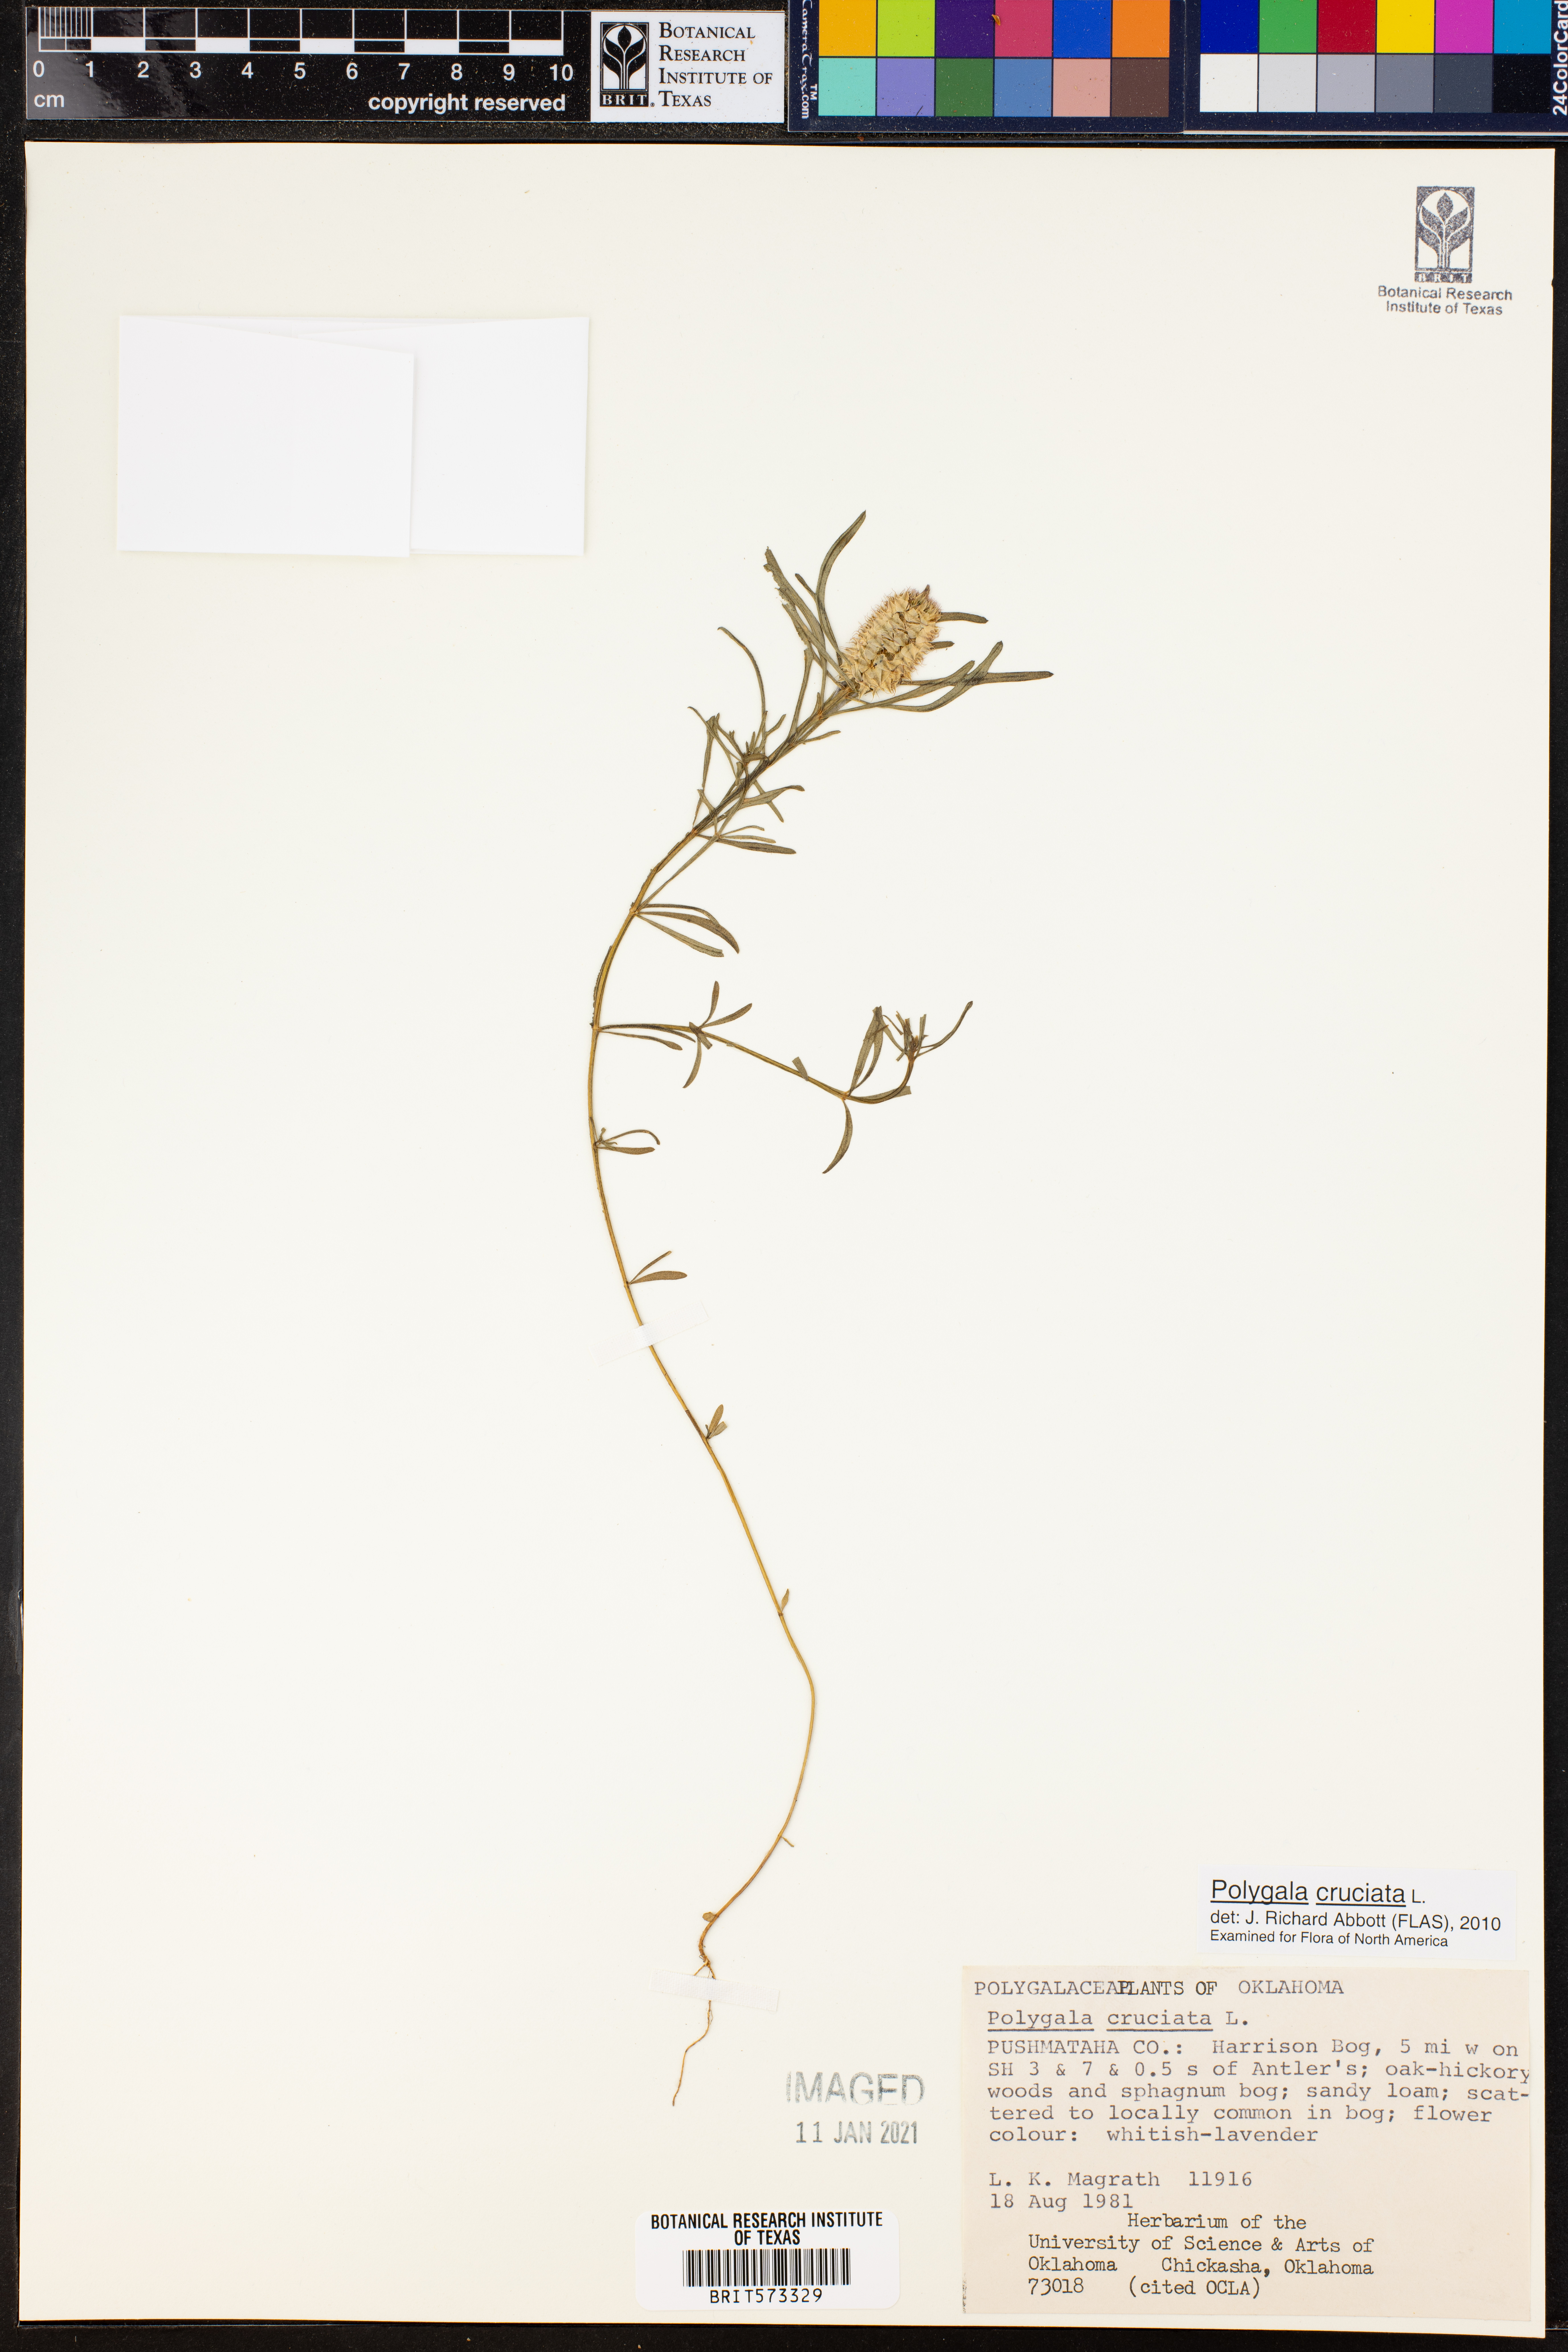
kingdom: Plantae
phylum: Tracheophyta
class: Magnoliopsida
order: Fabales
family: Polygalaceae
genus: Polygala
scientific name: Polygala cruciata
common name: Drumheads
